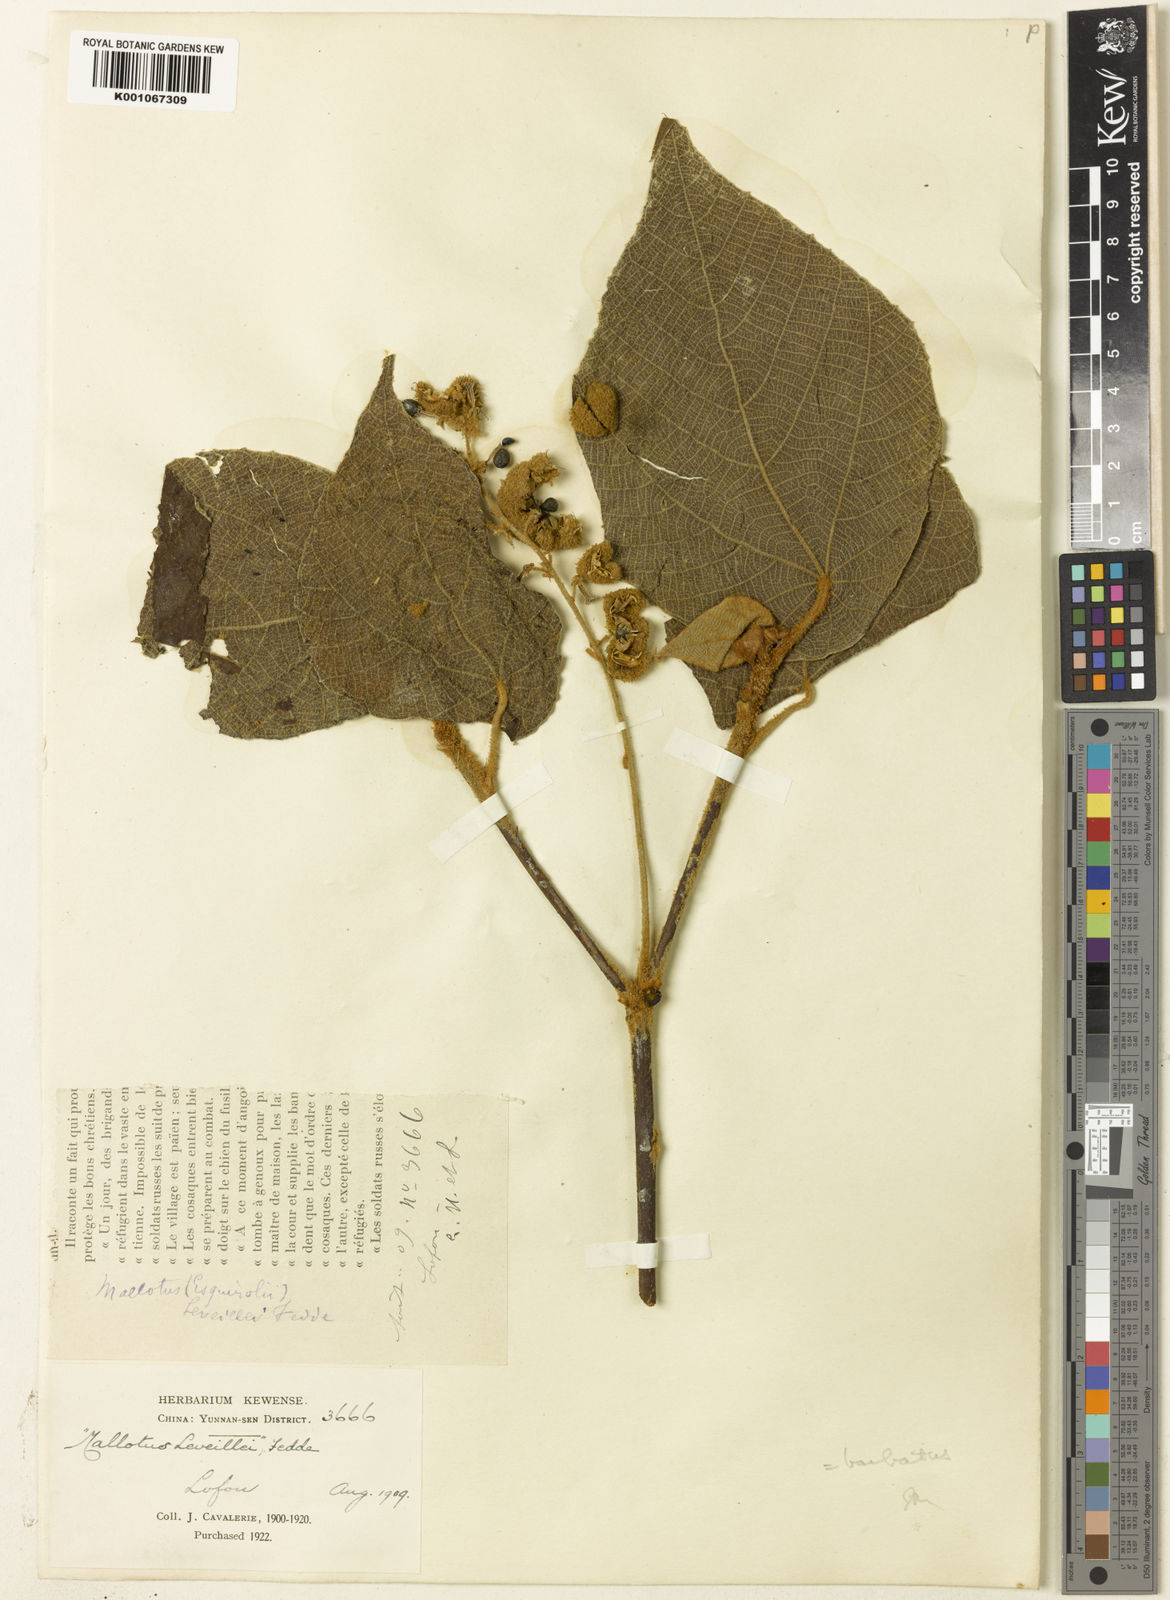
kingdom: Plantae
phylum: Tracheophyta
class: Magnoliopsida
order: Malpighiales
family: Euphorbiaceae
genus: Mallotus
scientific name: Mallotus barbatus
